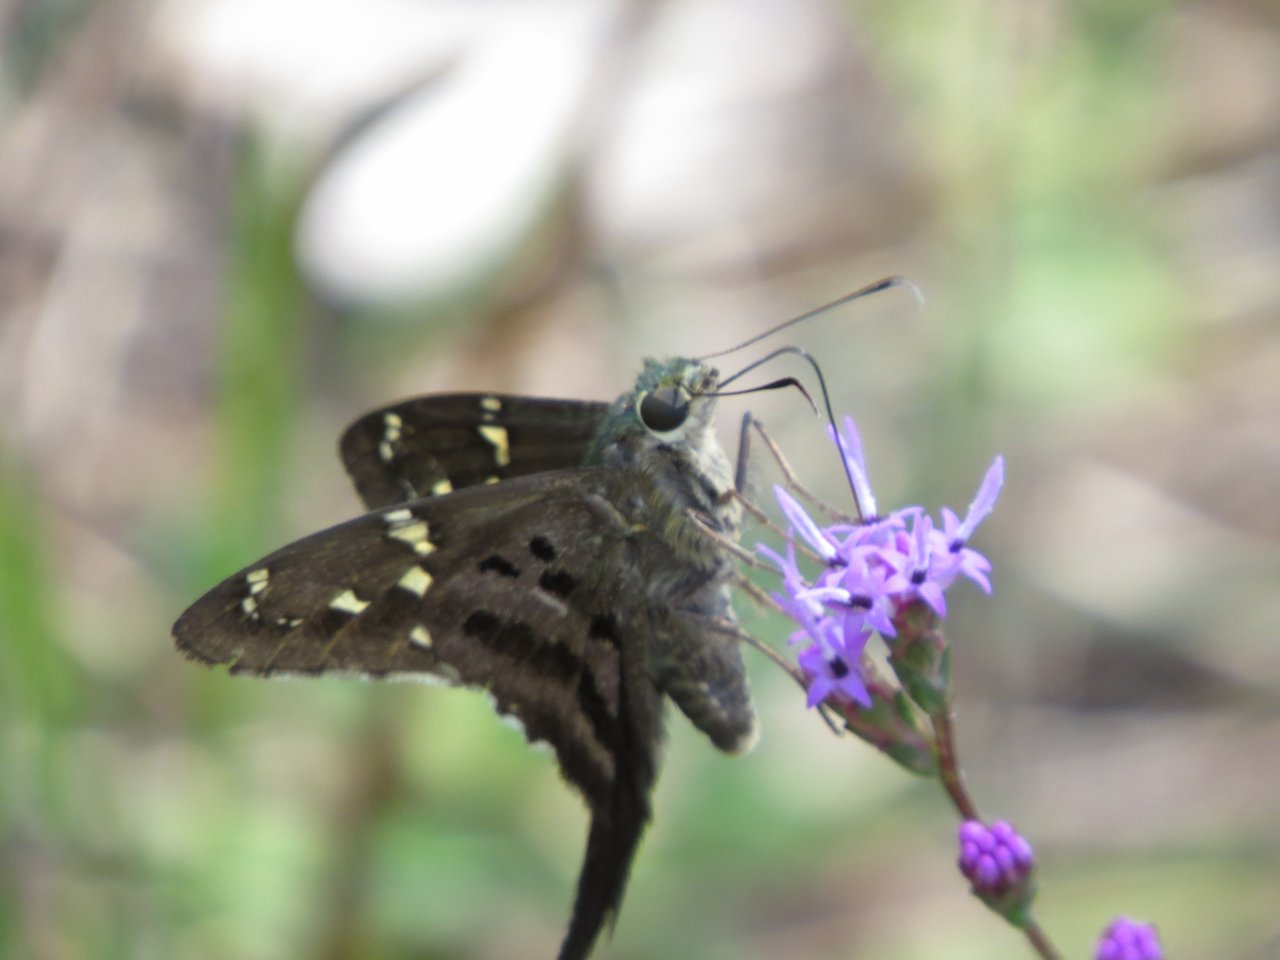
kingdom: Animalia
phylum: Arthropoda
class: Insecta
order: Lepidoptera
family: Hesperiidae
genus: Urbanus
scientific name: Urbanus proteus
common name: Long-tailed Skipper
